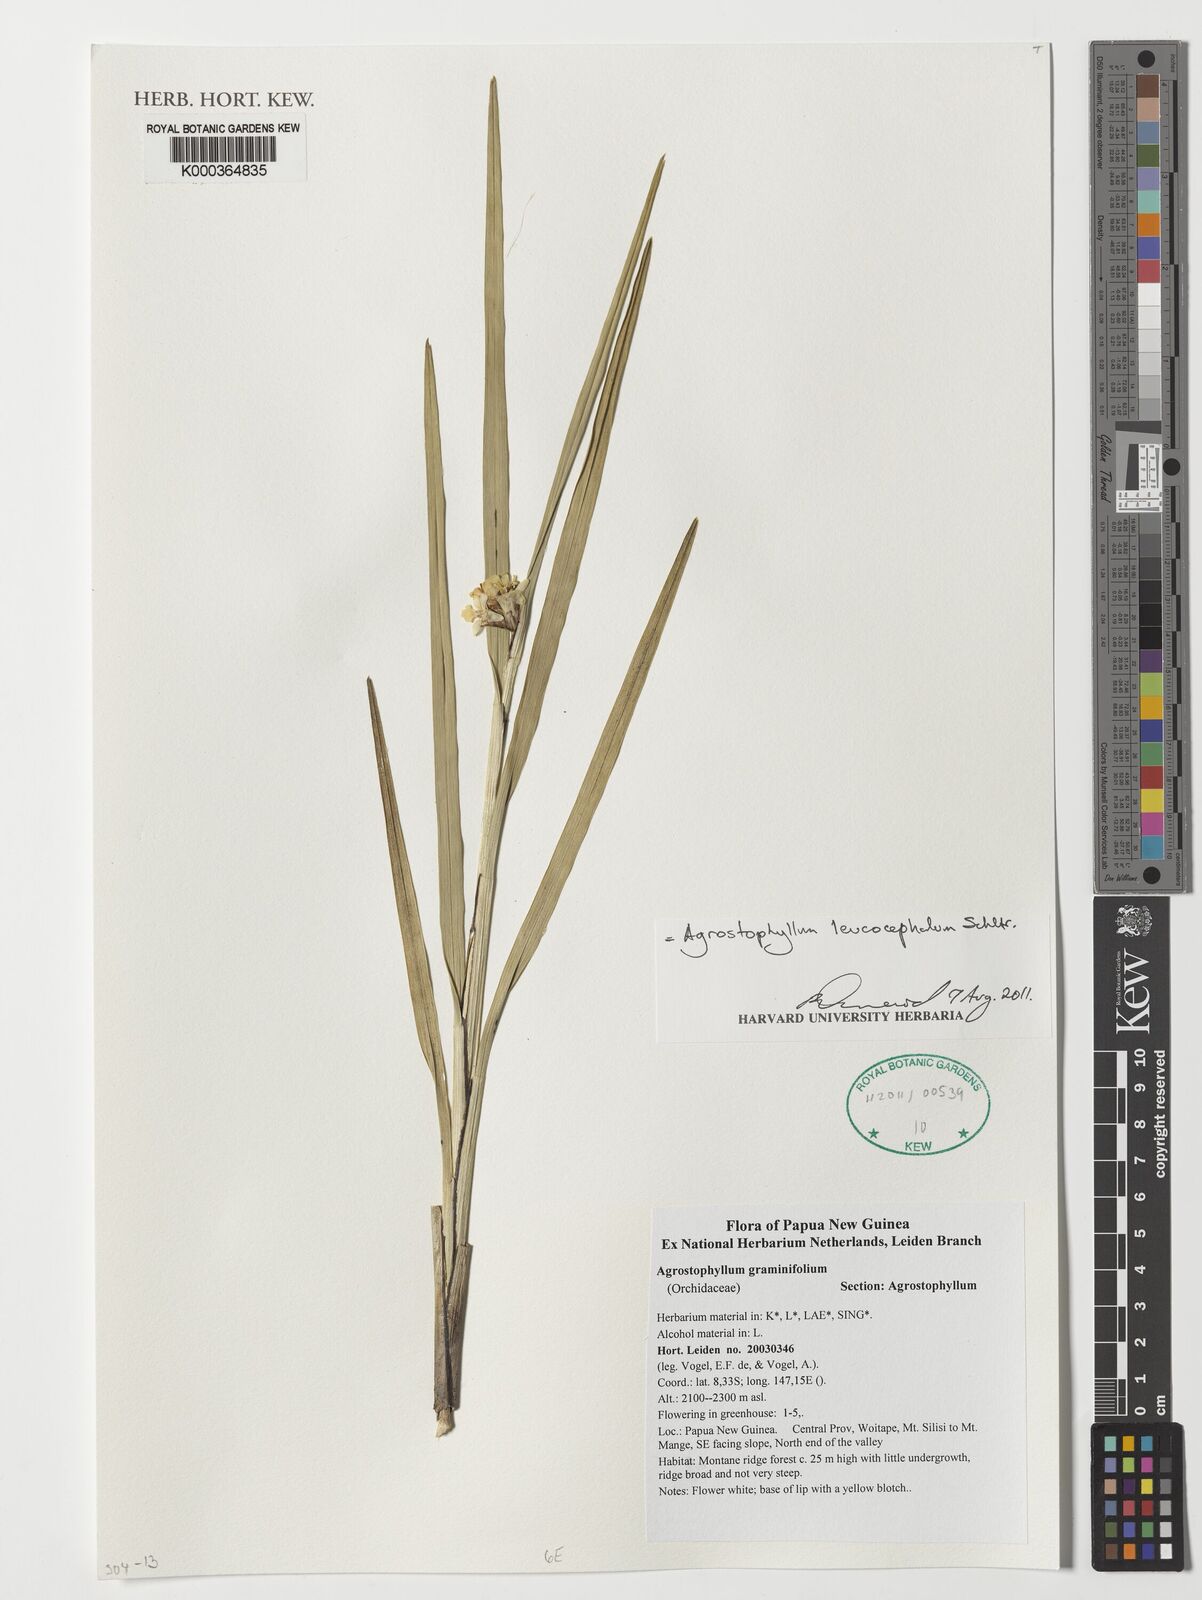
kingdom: Plantae
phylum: Tracheophyta
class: Liliopsida
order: Asparagales
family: Orchidaceae
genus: Agrostophyllum
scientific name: Agrostophyllum graminifolium
